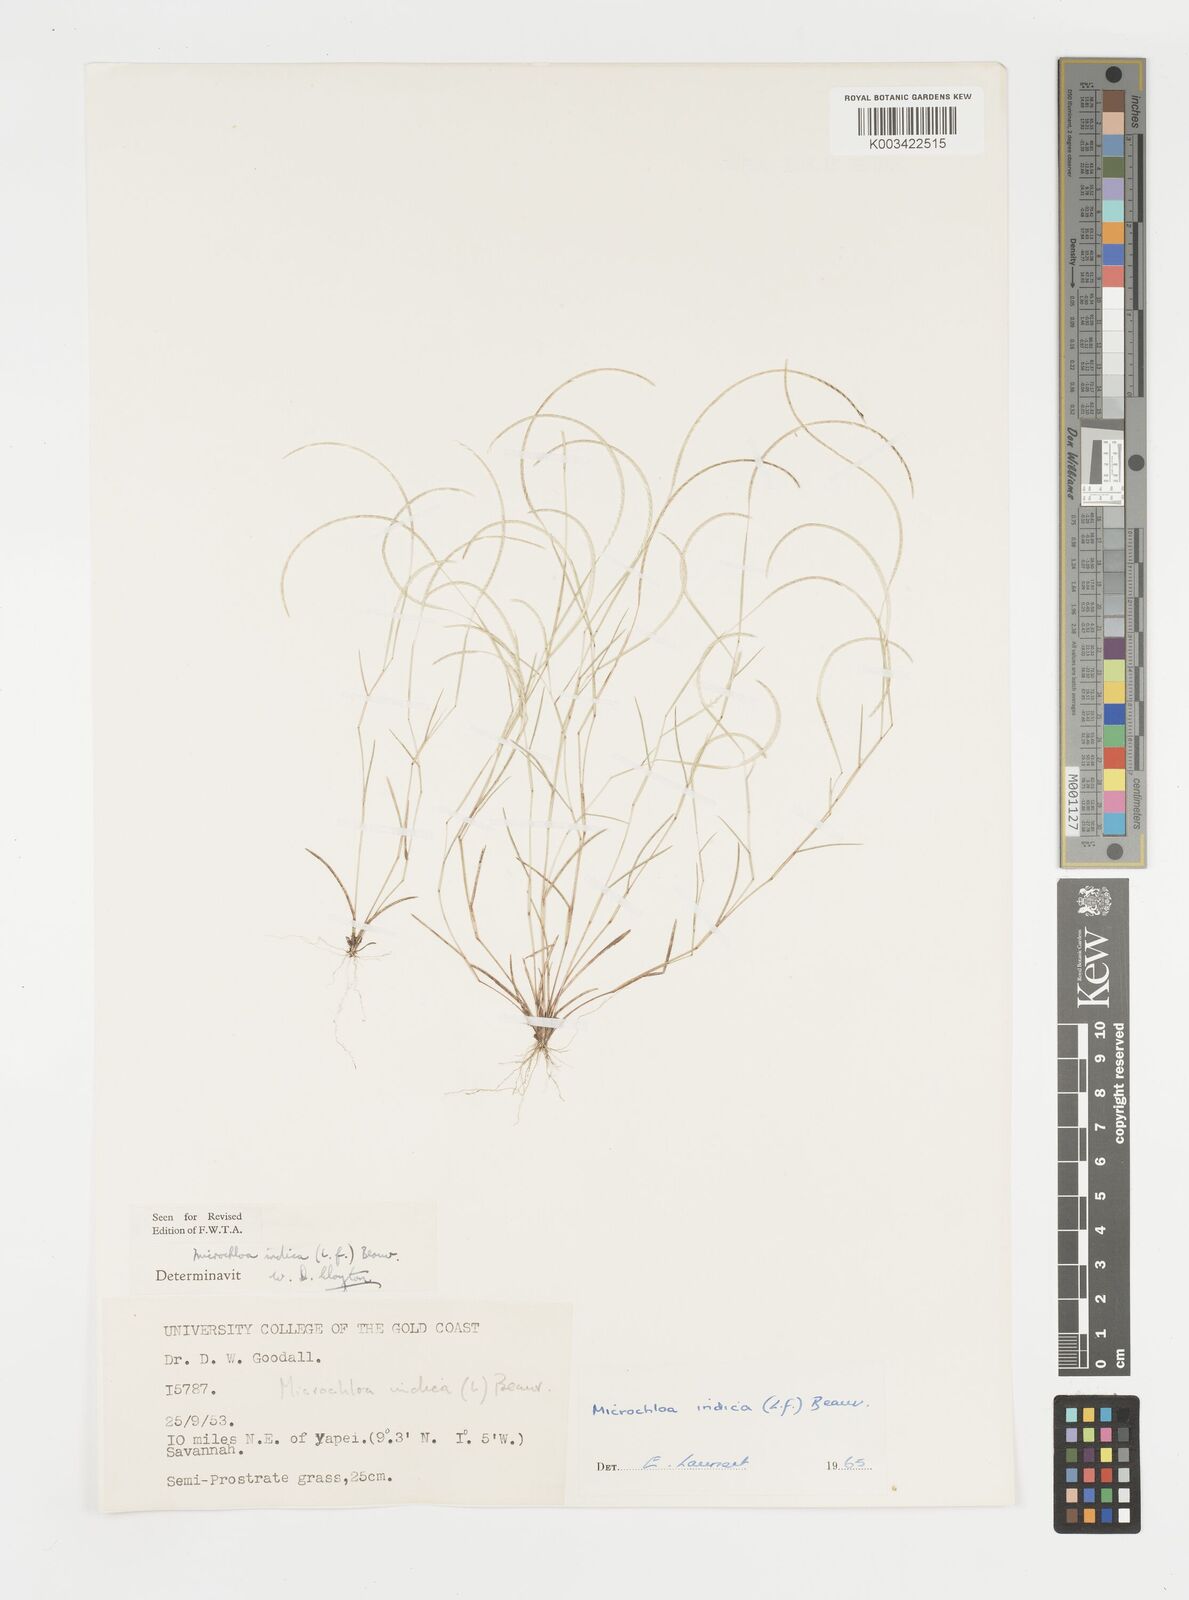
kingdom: Plantae
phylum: Tracheophyta
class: Liliopsida
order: Poales
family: Poaceae
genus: Microchloa
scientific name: Microchloa indica
